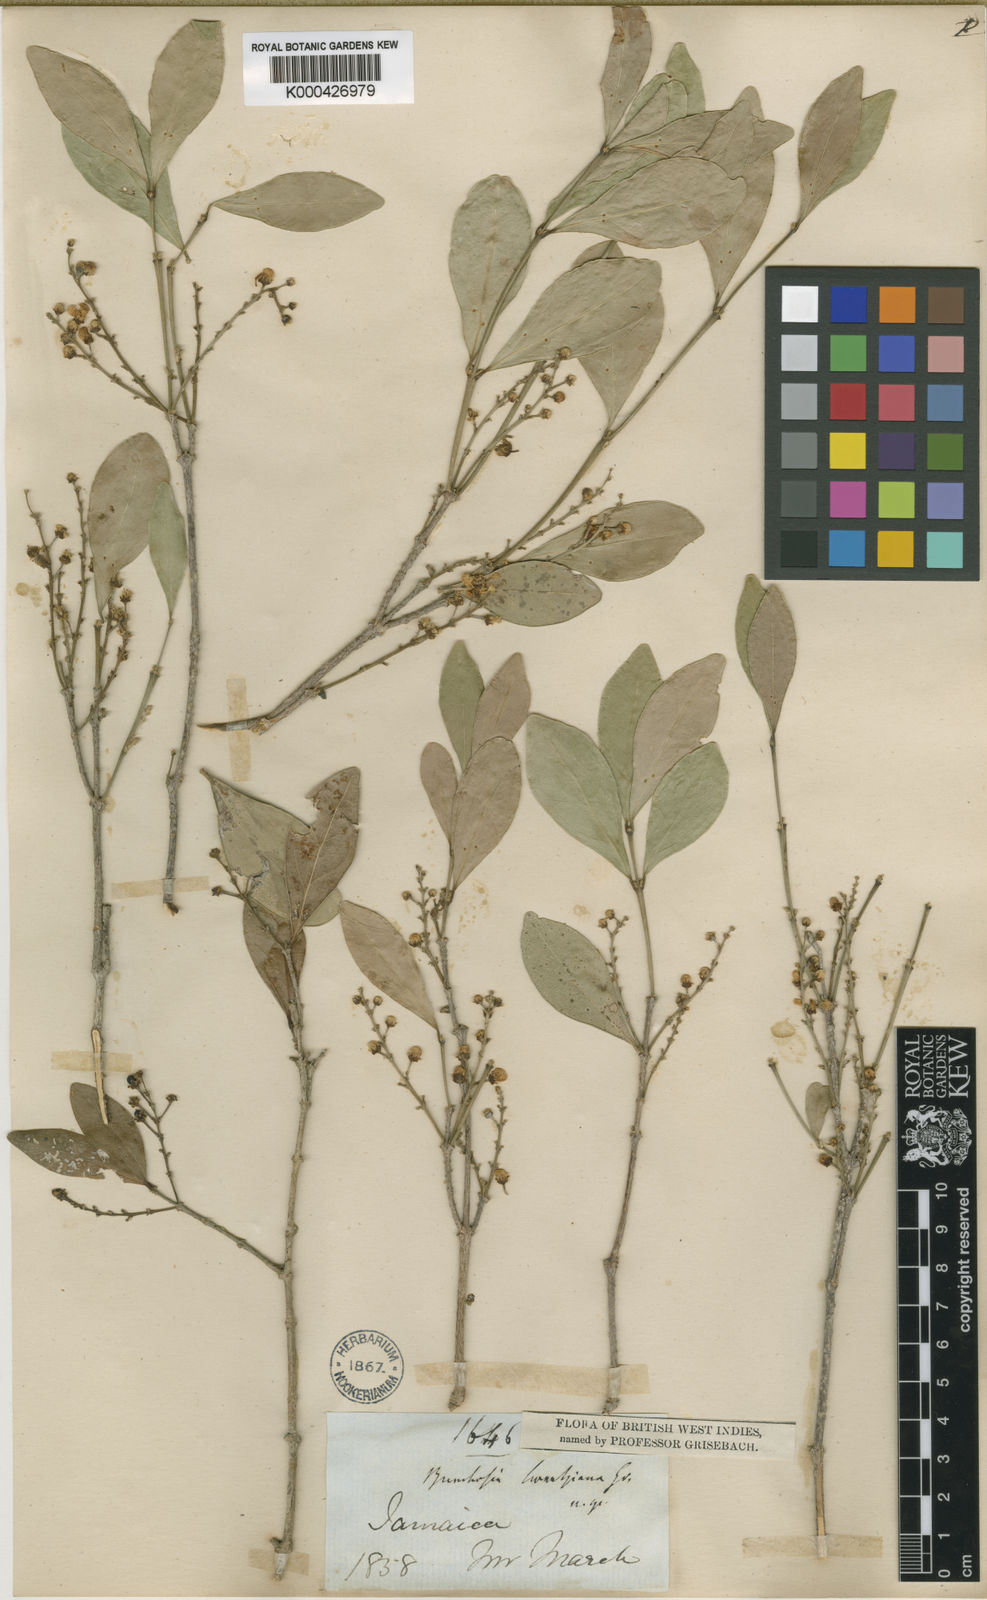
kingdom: Plantae
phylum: Tracheophyta
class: Magnoliopsida
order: Malpighiales
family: Malpighiaceae
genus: Bunchosia
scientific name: Bunchosia swartziana
